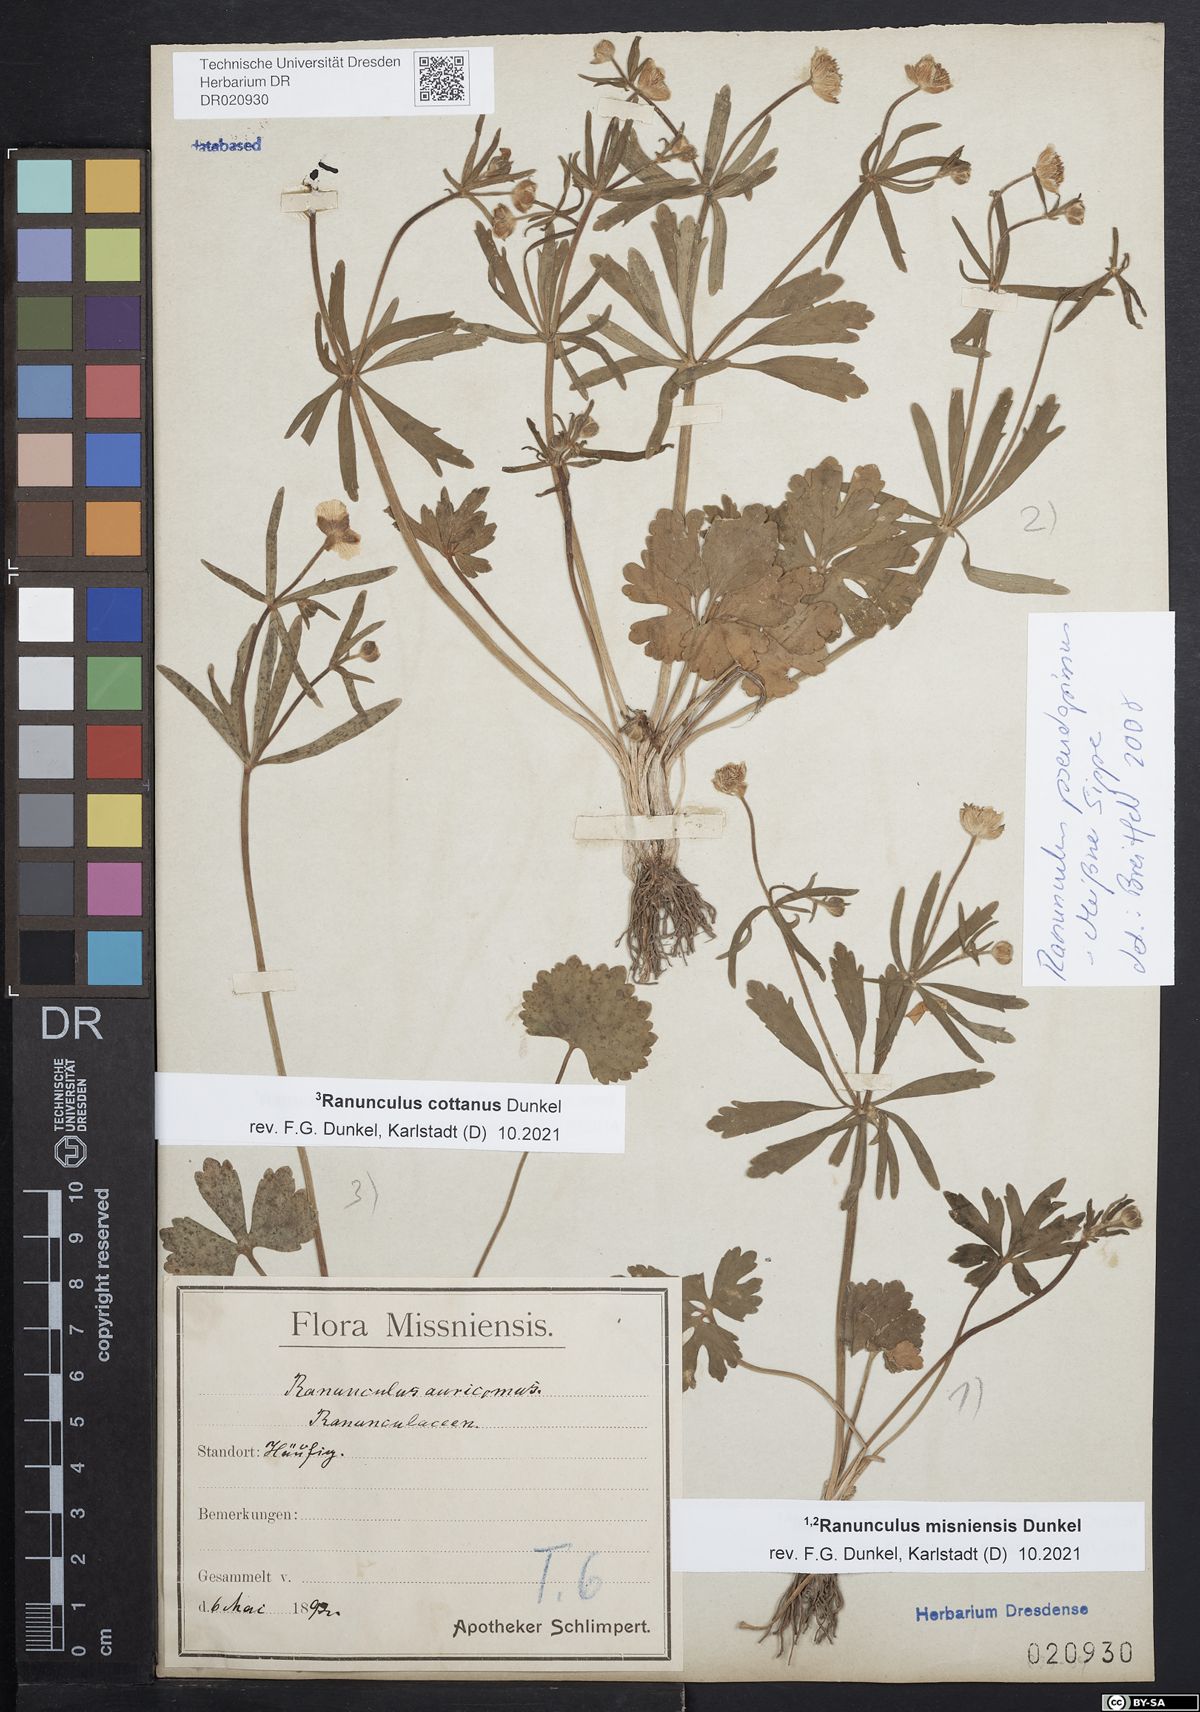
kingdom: Plantae
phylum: Tracheophyta
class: Magnoliopsida
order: Ranunculales
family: Ranunculaceae
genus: Ranunculus
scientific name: Ranunculus misniensis
